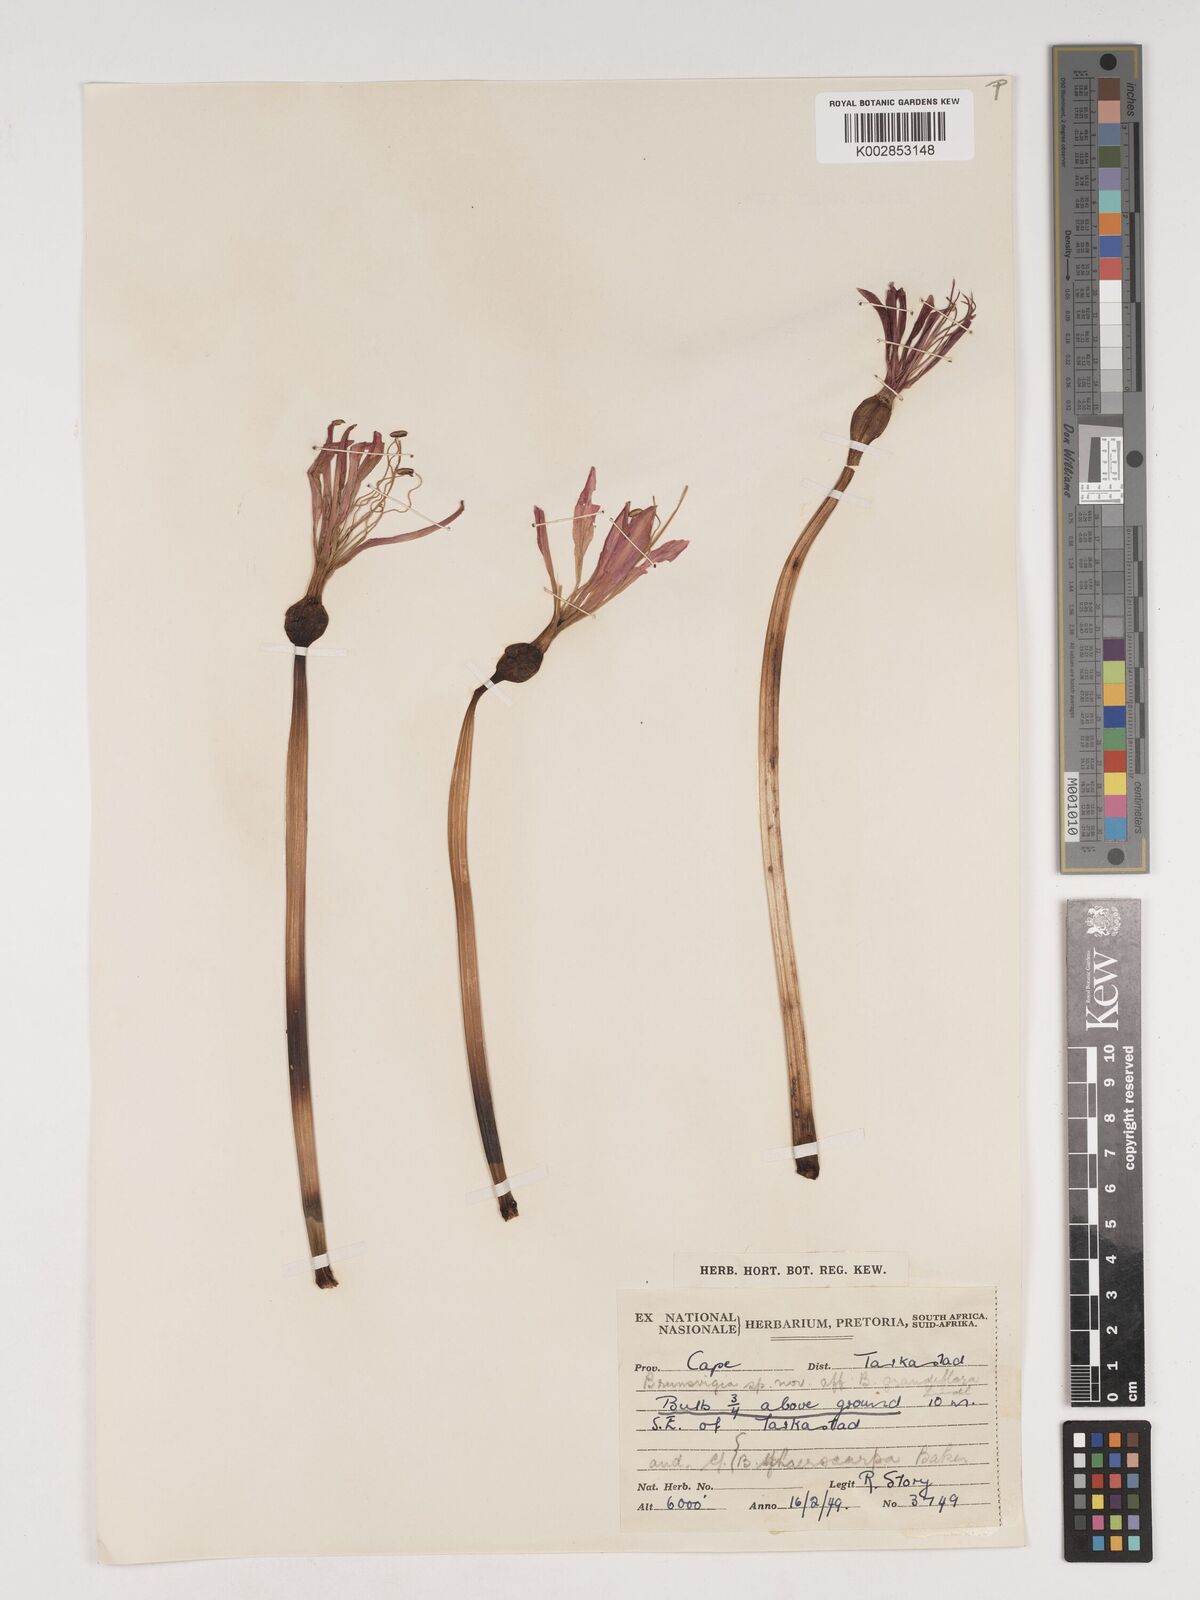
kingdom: Plantae
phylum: Tracheophyta
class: Liliopsida
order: Asparagales
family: Amaryllidaceae
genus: Brunsvigia
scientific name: Brunsvigia grandiflora
